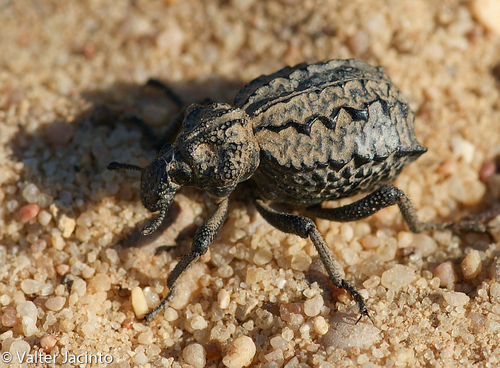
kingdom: Animalia
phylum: Arthropoda
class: Insecta
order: Coleoptera
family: Brachyceridae
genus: Brachycerus
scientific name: Brachycerus plicatus
